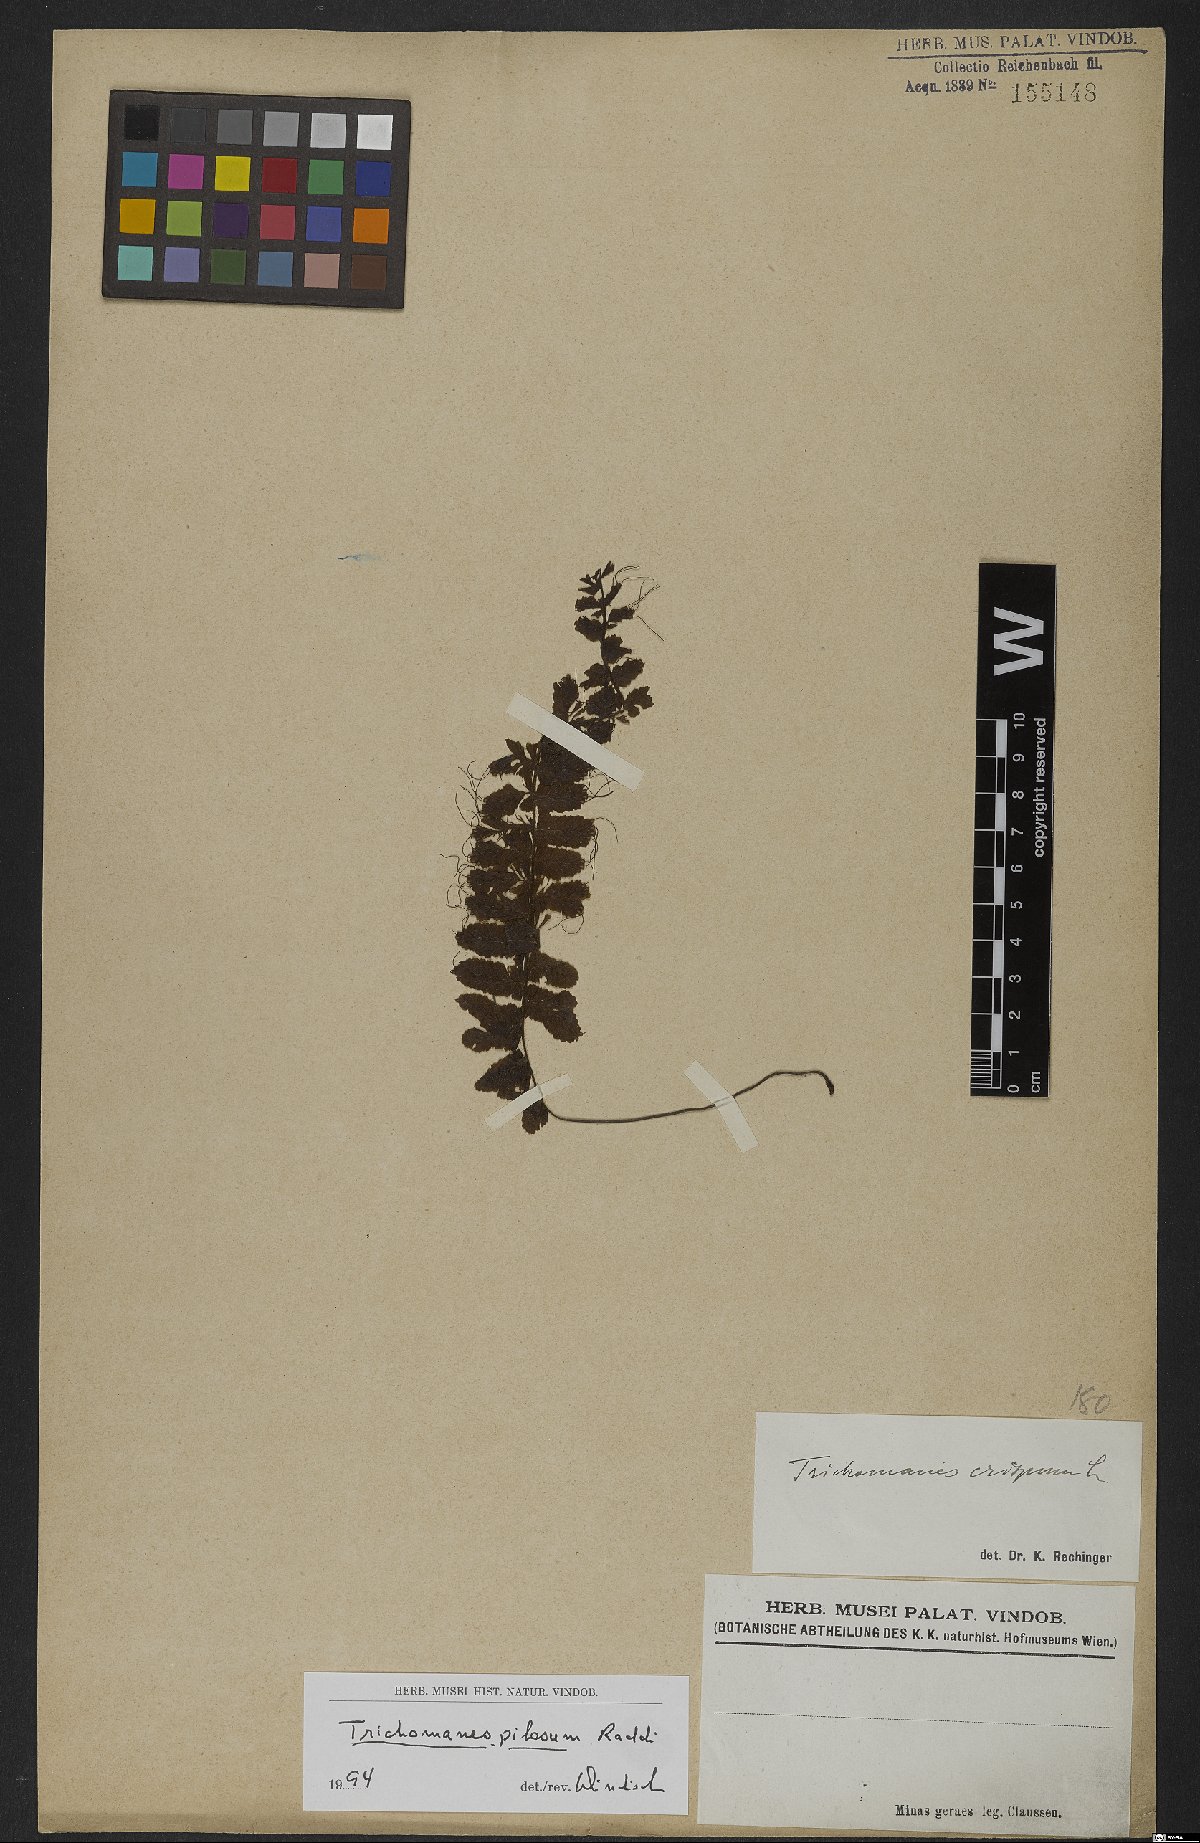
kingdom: Plantae
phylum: Tracheophyta
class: Polypodiopsida
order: Hymenophyllales
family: Hymenophyllaceae
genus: Trichomanes
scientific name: Trichomanes pilosum
